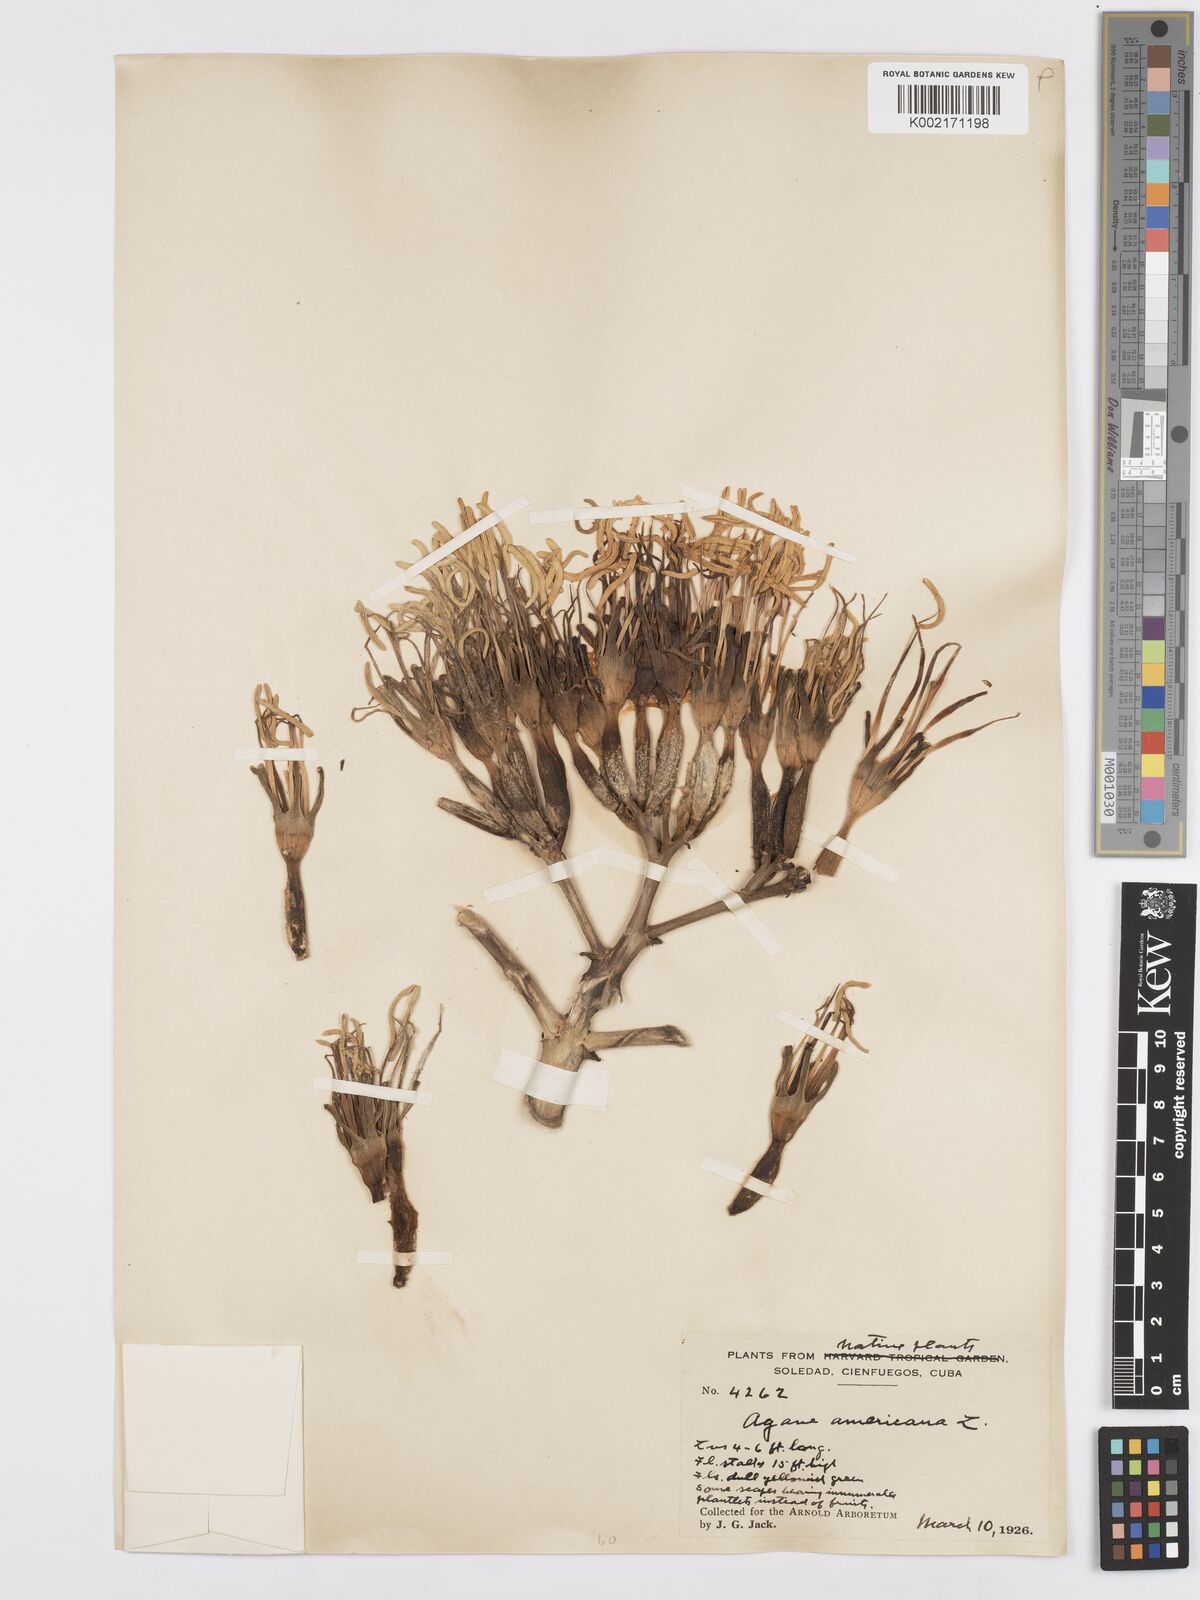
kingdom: Plantae
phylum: Tracheophyta
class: Liliopsida
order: Asparagales
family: Asparagaceae
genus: Agave
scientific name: Agave americana
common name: Centuryplant
